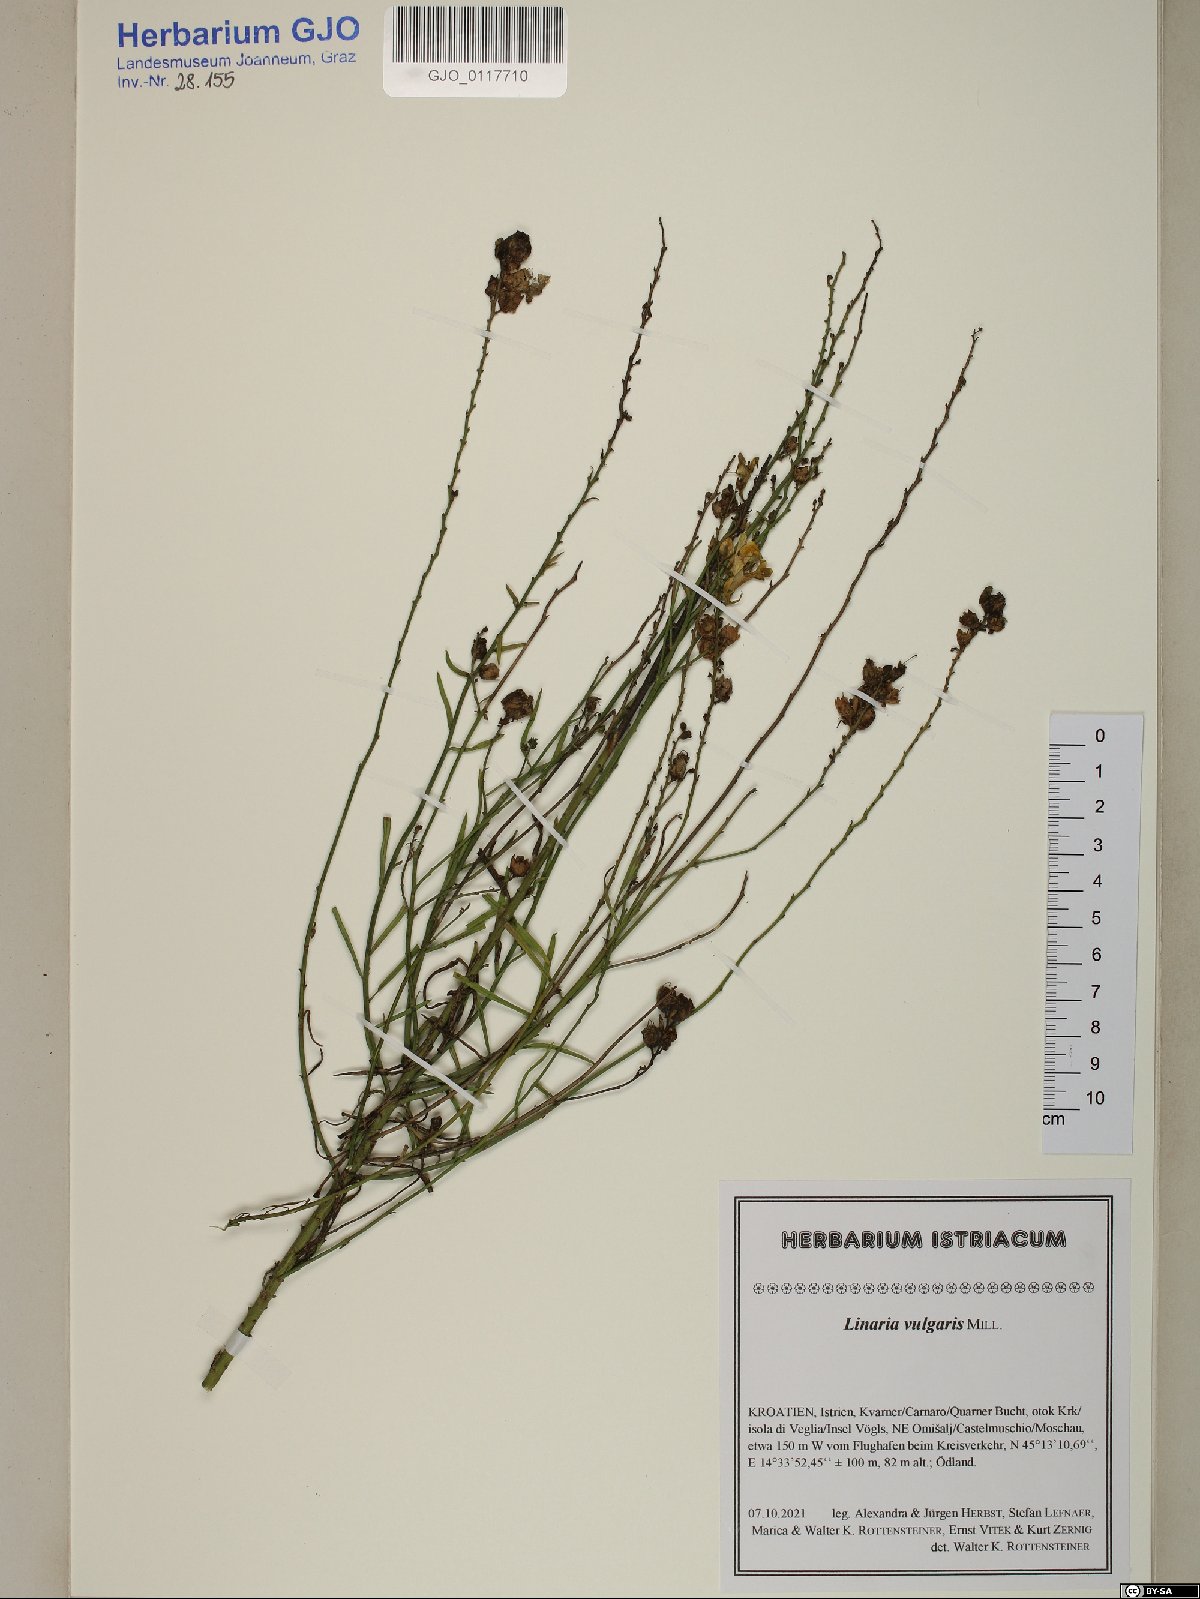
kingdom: Plantae
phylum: Tracheophyta
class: Magnoliopsida
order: Lamiales
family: Plantaginaceae
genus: Linaria
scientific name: Linaria vulgaris
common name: Butter and eggs
